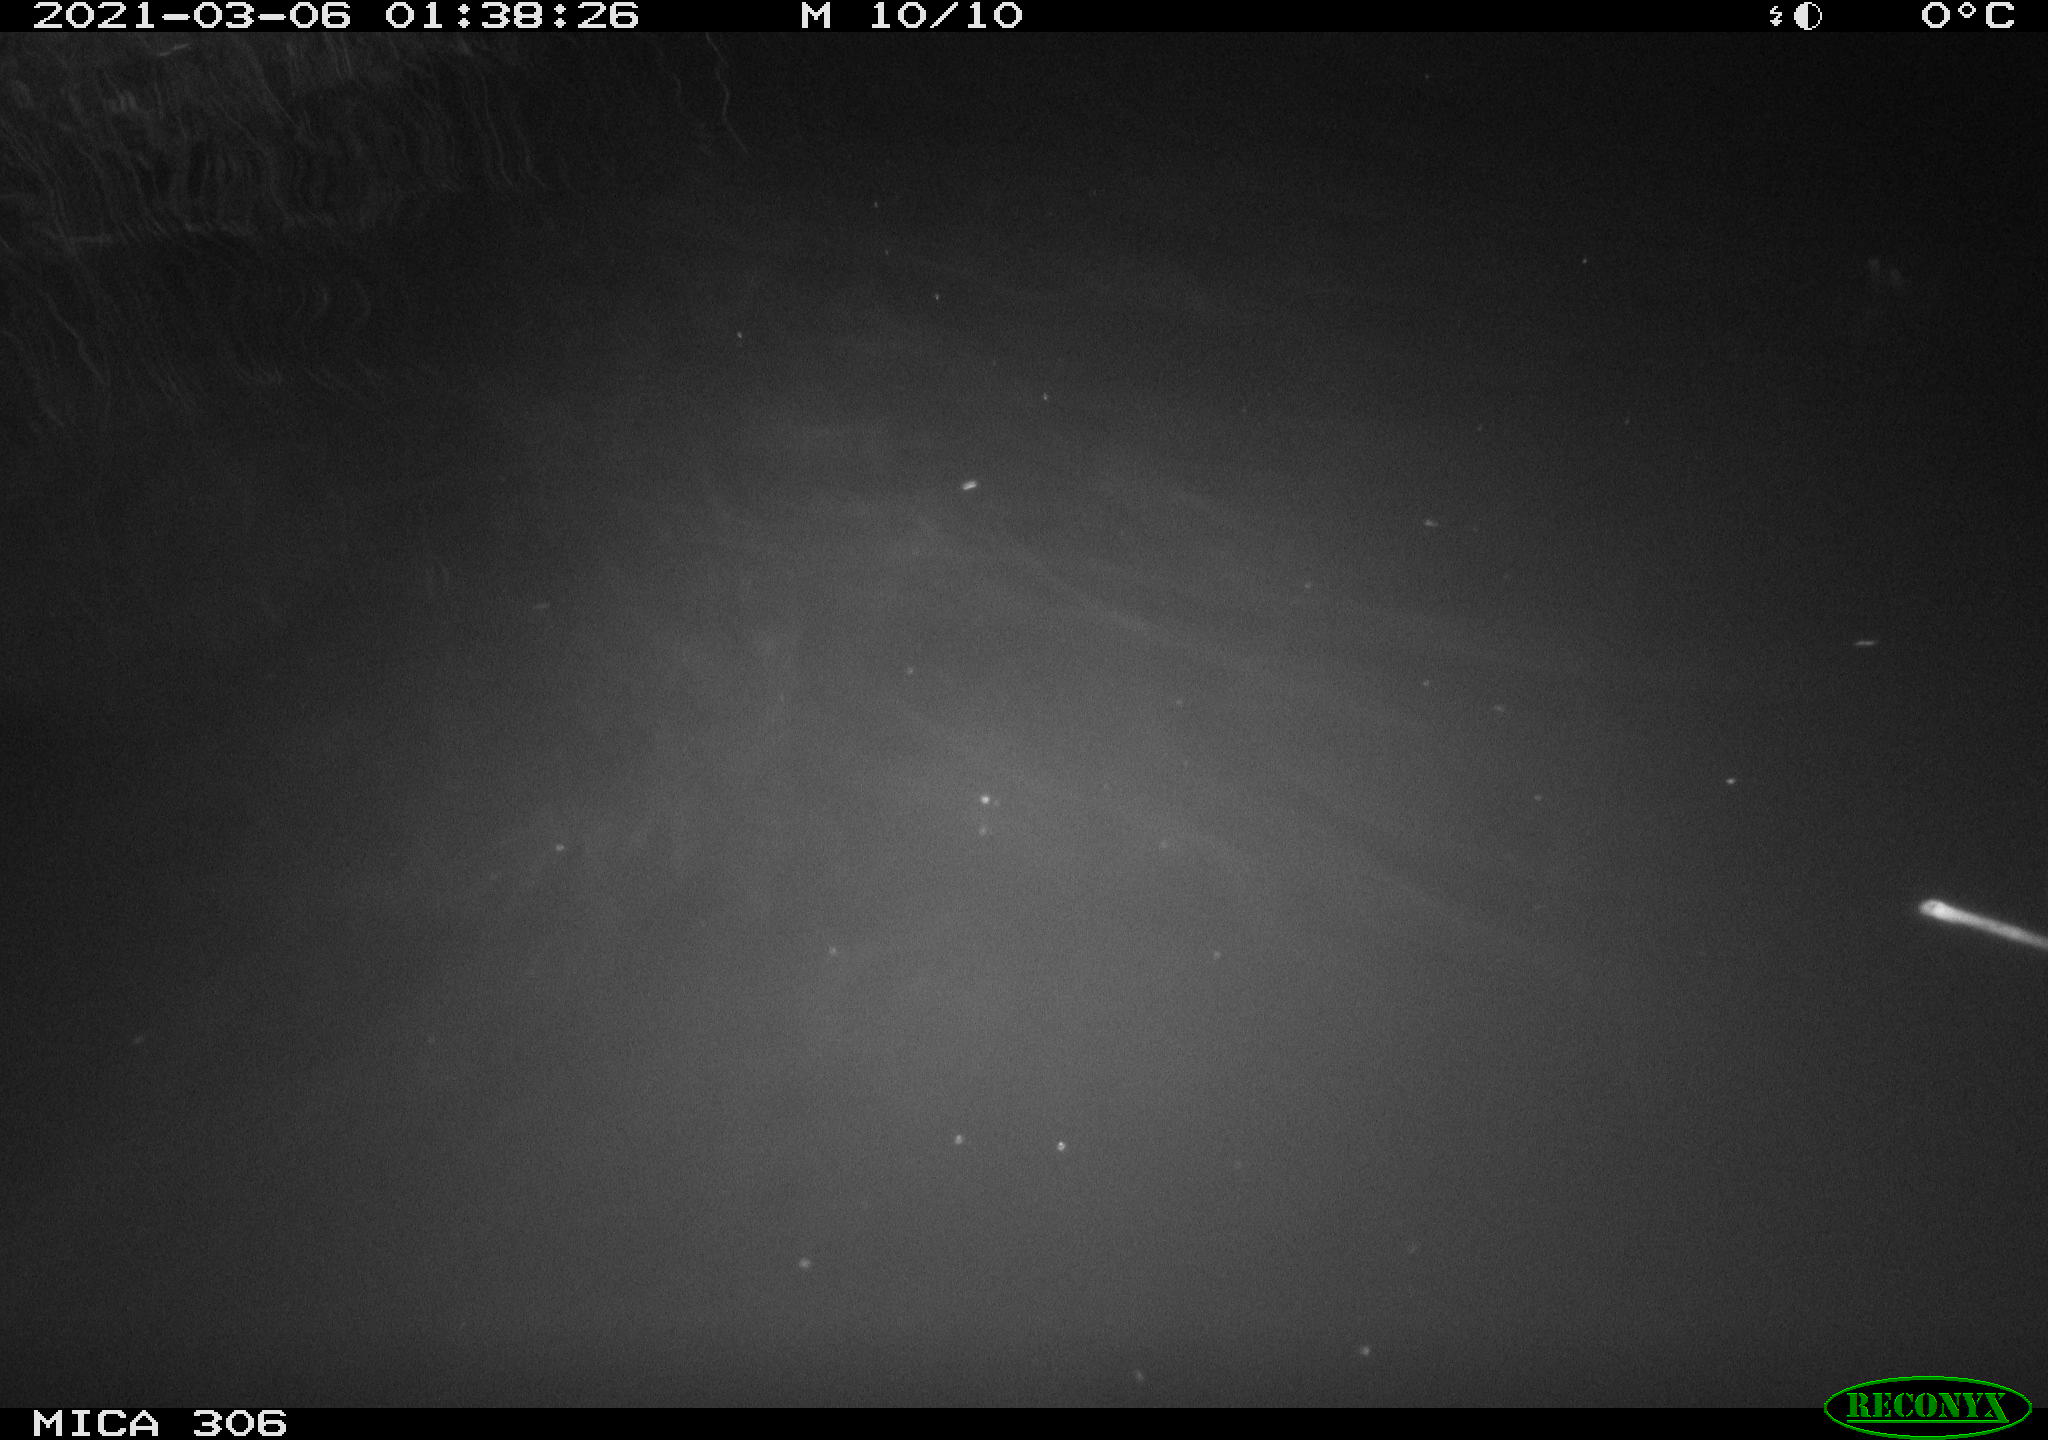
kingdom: Animalia
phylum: Chordata
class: Mammalia
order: Rodentia
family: Cricetidae
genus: Ondatra
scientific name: Ondatra zibethicus
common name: Muskrat
